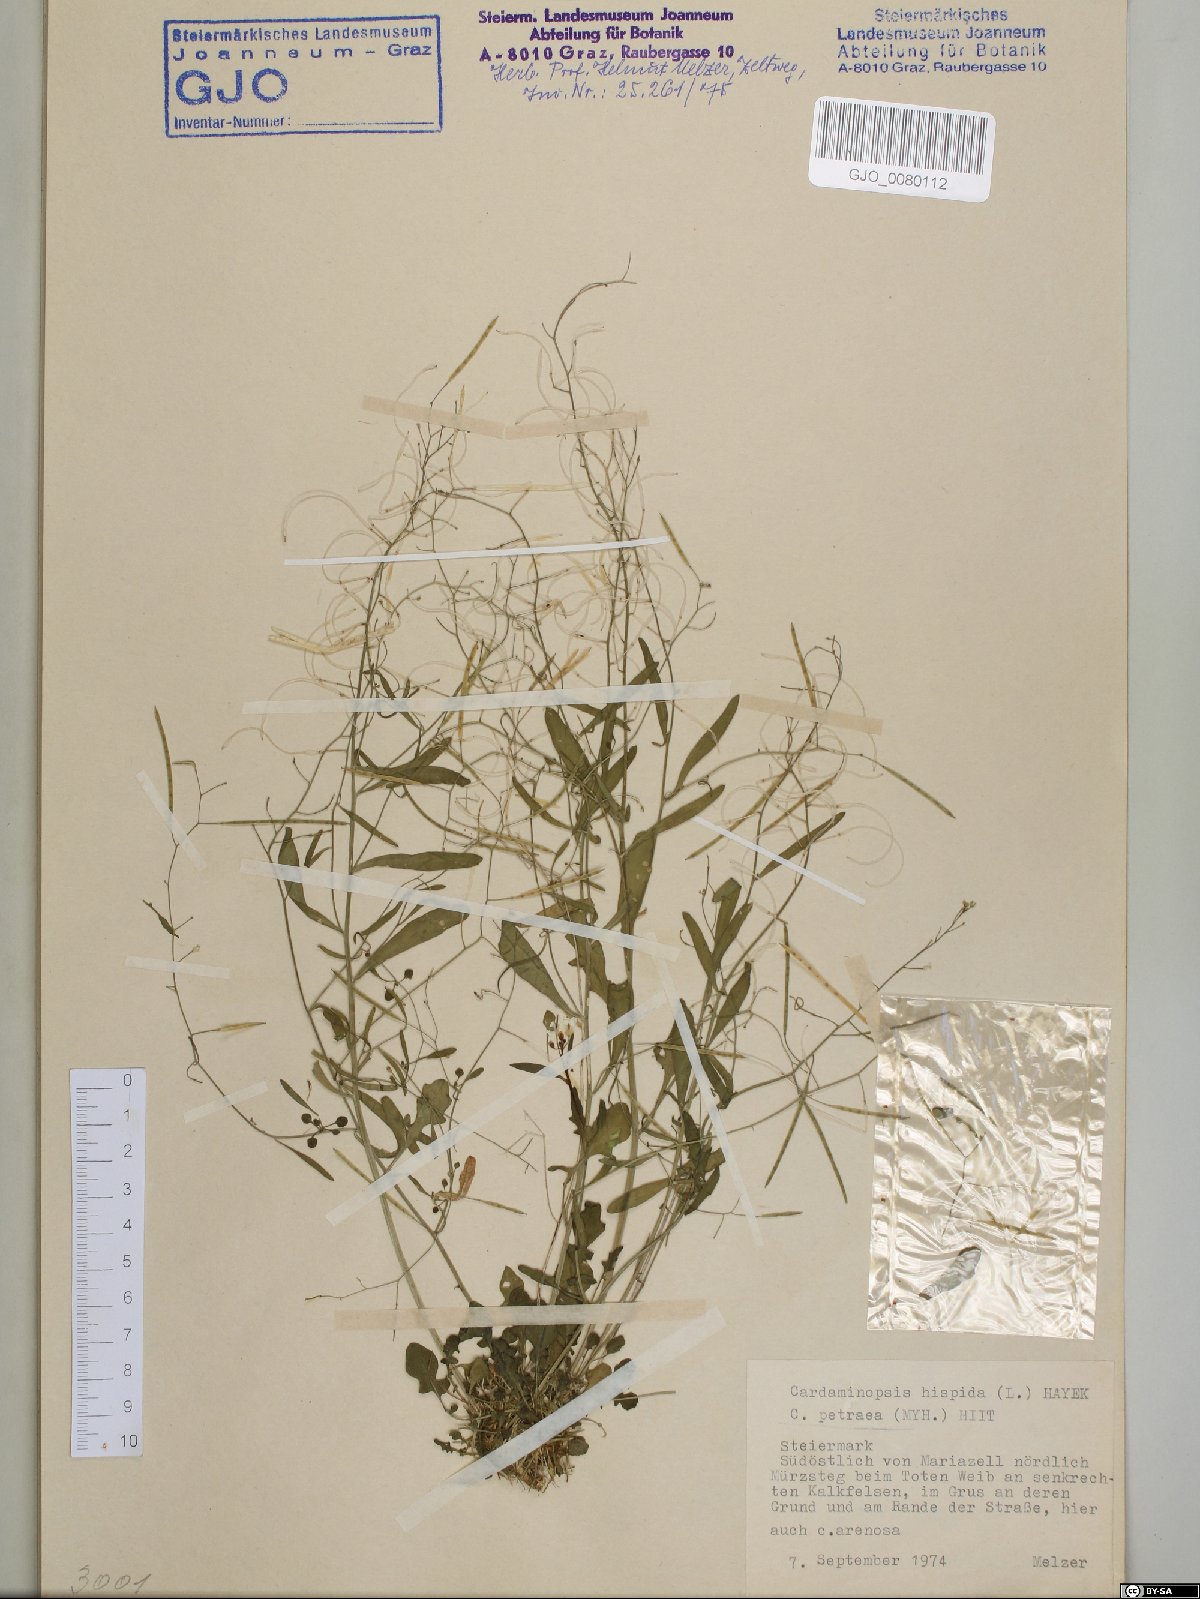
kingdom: Plantae
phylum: Tracheophyta
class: Magnoliopsida
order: Brassicales
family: Brassicaceae
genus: Arabidopsis
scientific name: Arabidopsis lyrata
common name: Lyrate rockcress
